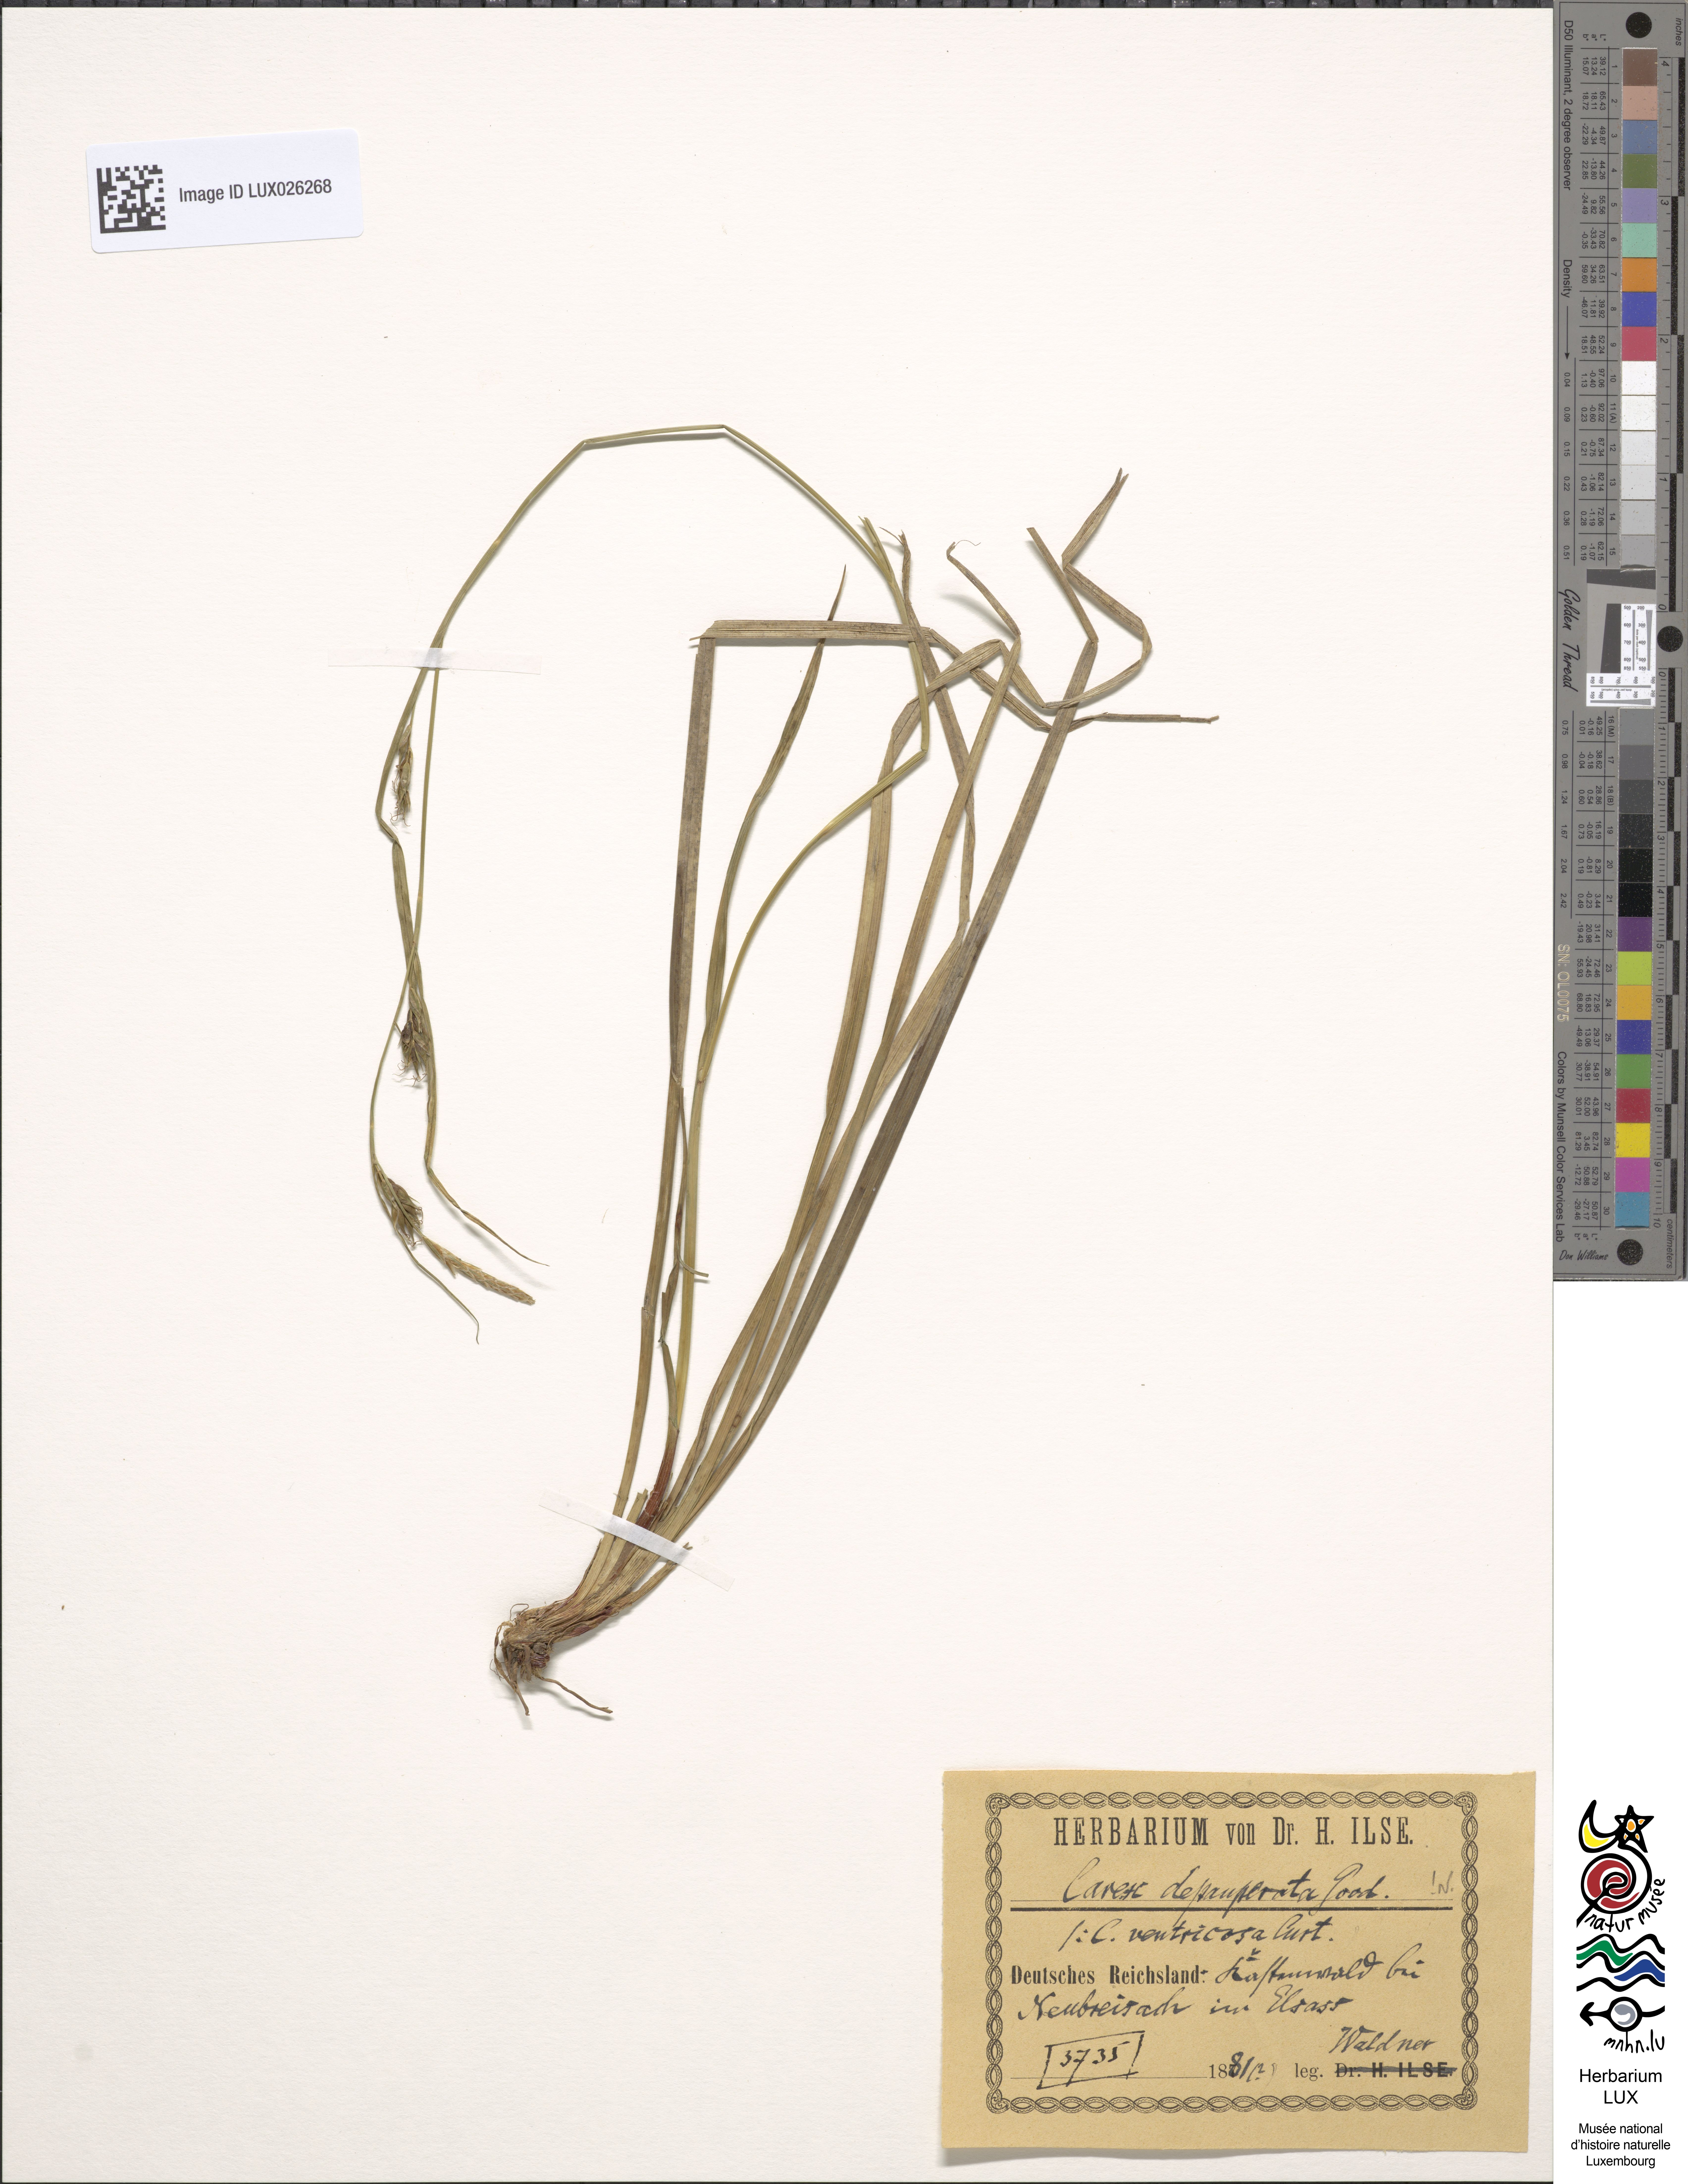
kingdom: Plantae
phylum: Tracheophyta
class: Liliopsida
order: Poales
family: Cyperaceae
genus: Carex
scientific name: Carex depauperata
